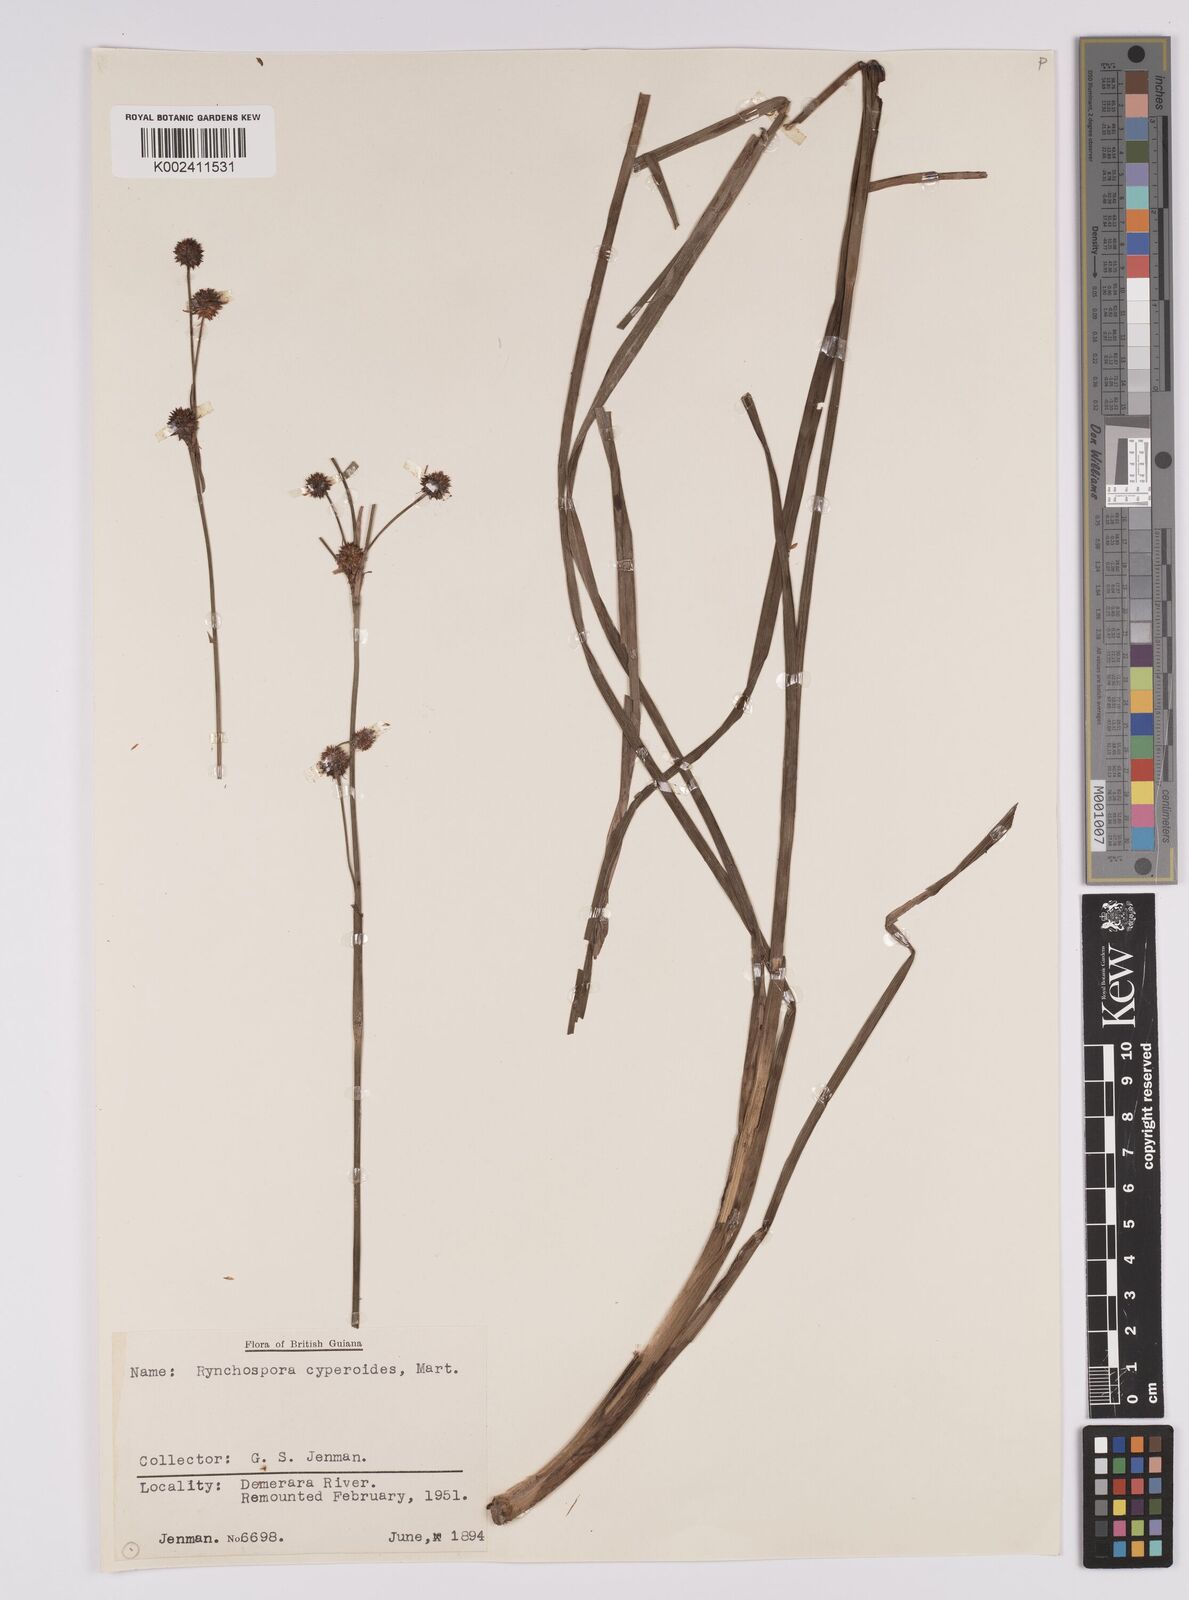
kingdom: Plantae
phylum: Tracheophyta
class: Liliopsida
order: Poales
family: Cyperaceae
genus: Rhynchospora
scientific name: Rhynchospora holoschoenoides
